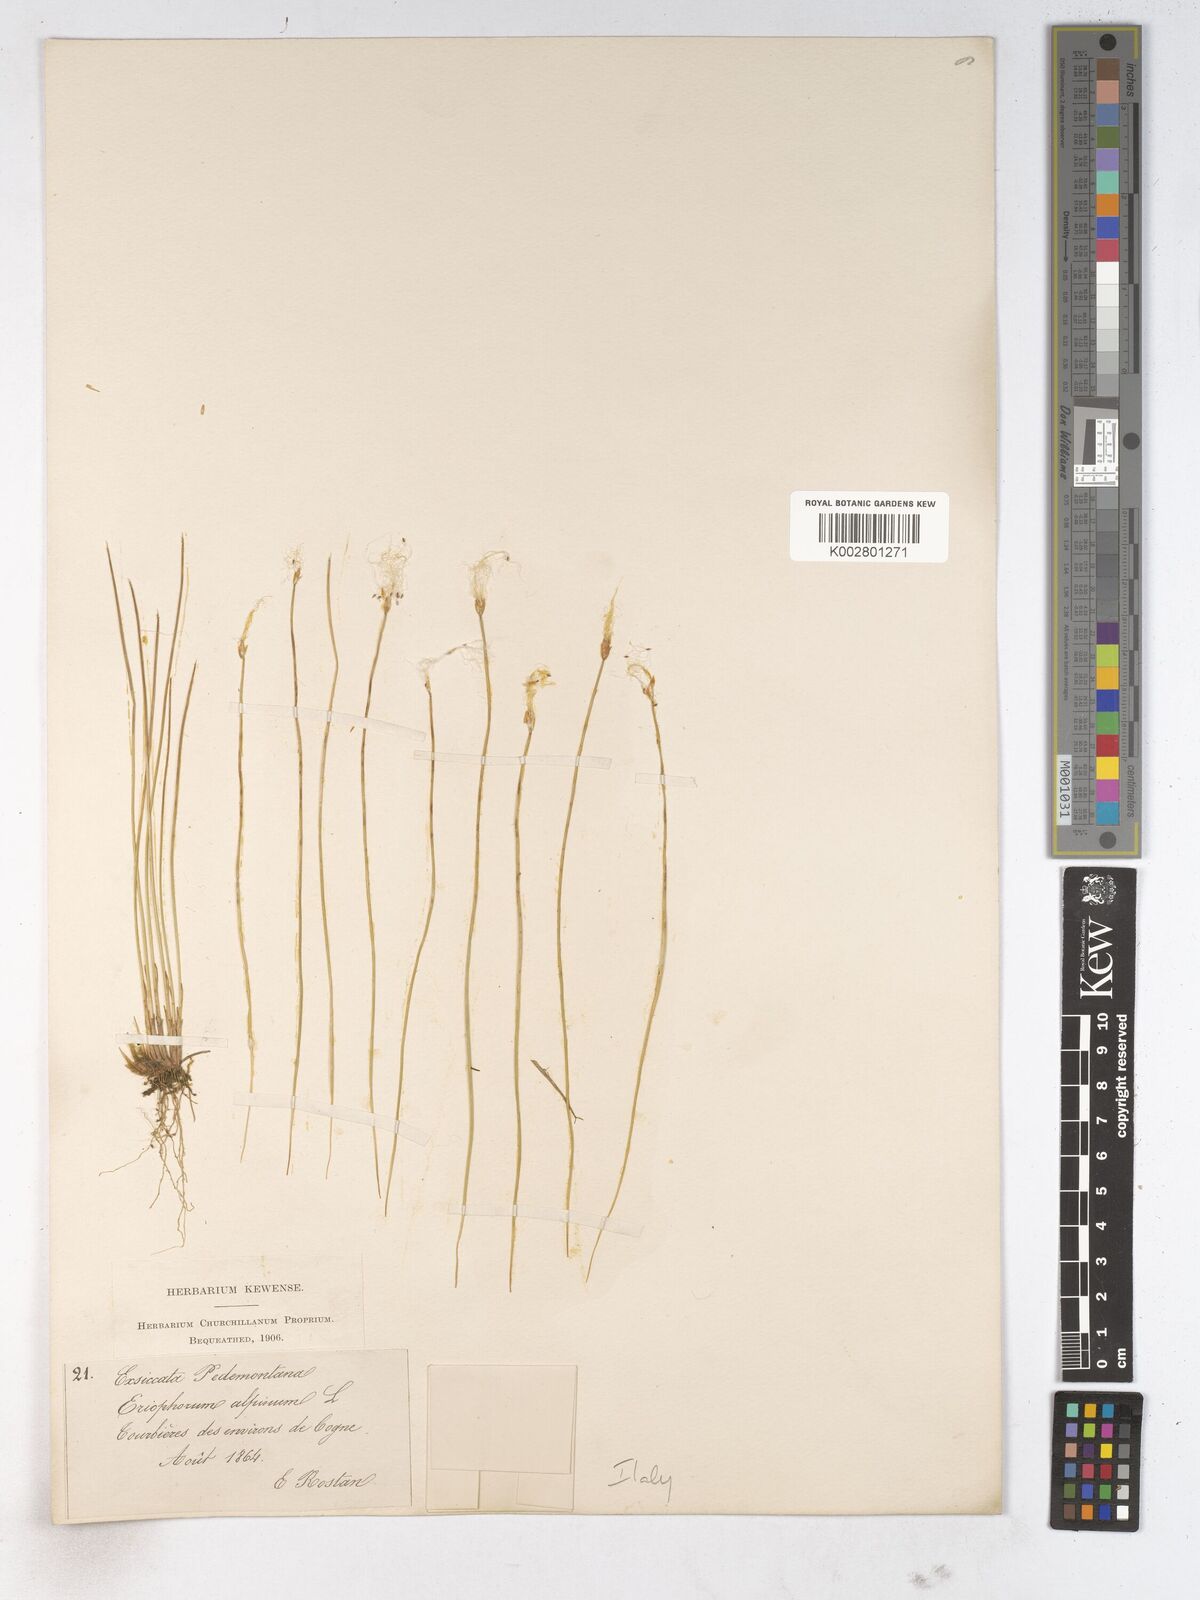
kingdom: Plantae
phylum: Tracheophyta
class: Liliopsida
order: Poales
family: Cyperaceae
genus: Trichophorum
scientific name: Trichophorum
